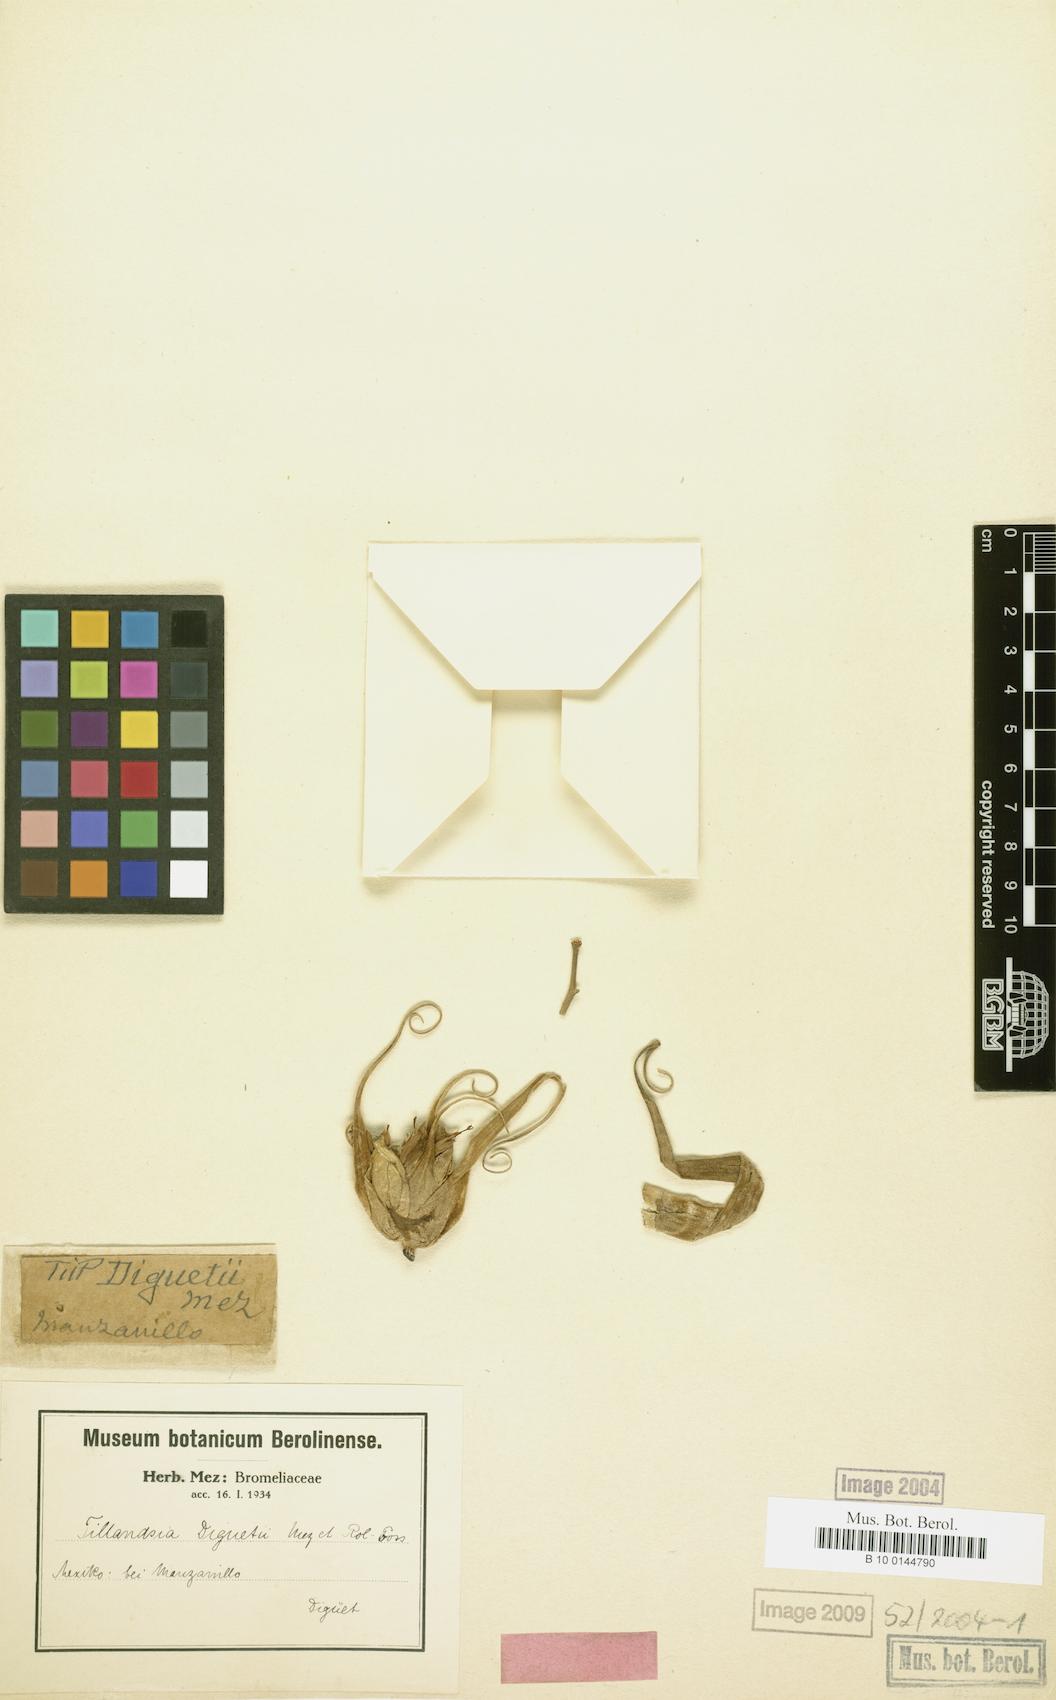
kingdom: Plantae
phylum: Tracheophyta
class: Liliopsida
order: Poales
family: Bromeliaceae
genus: Tillandsia
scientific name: Tillandsia diguetii
